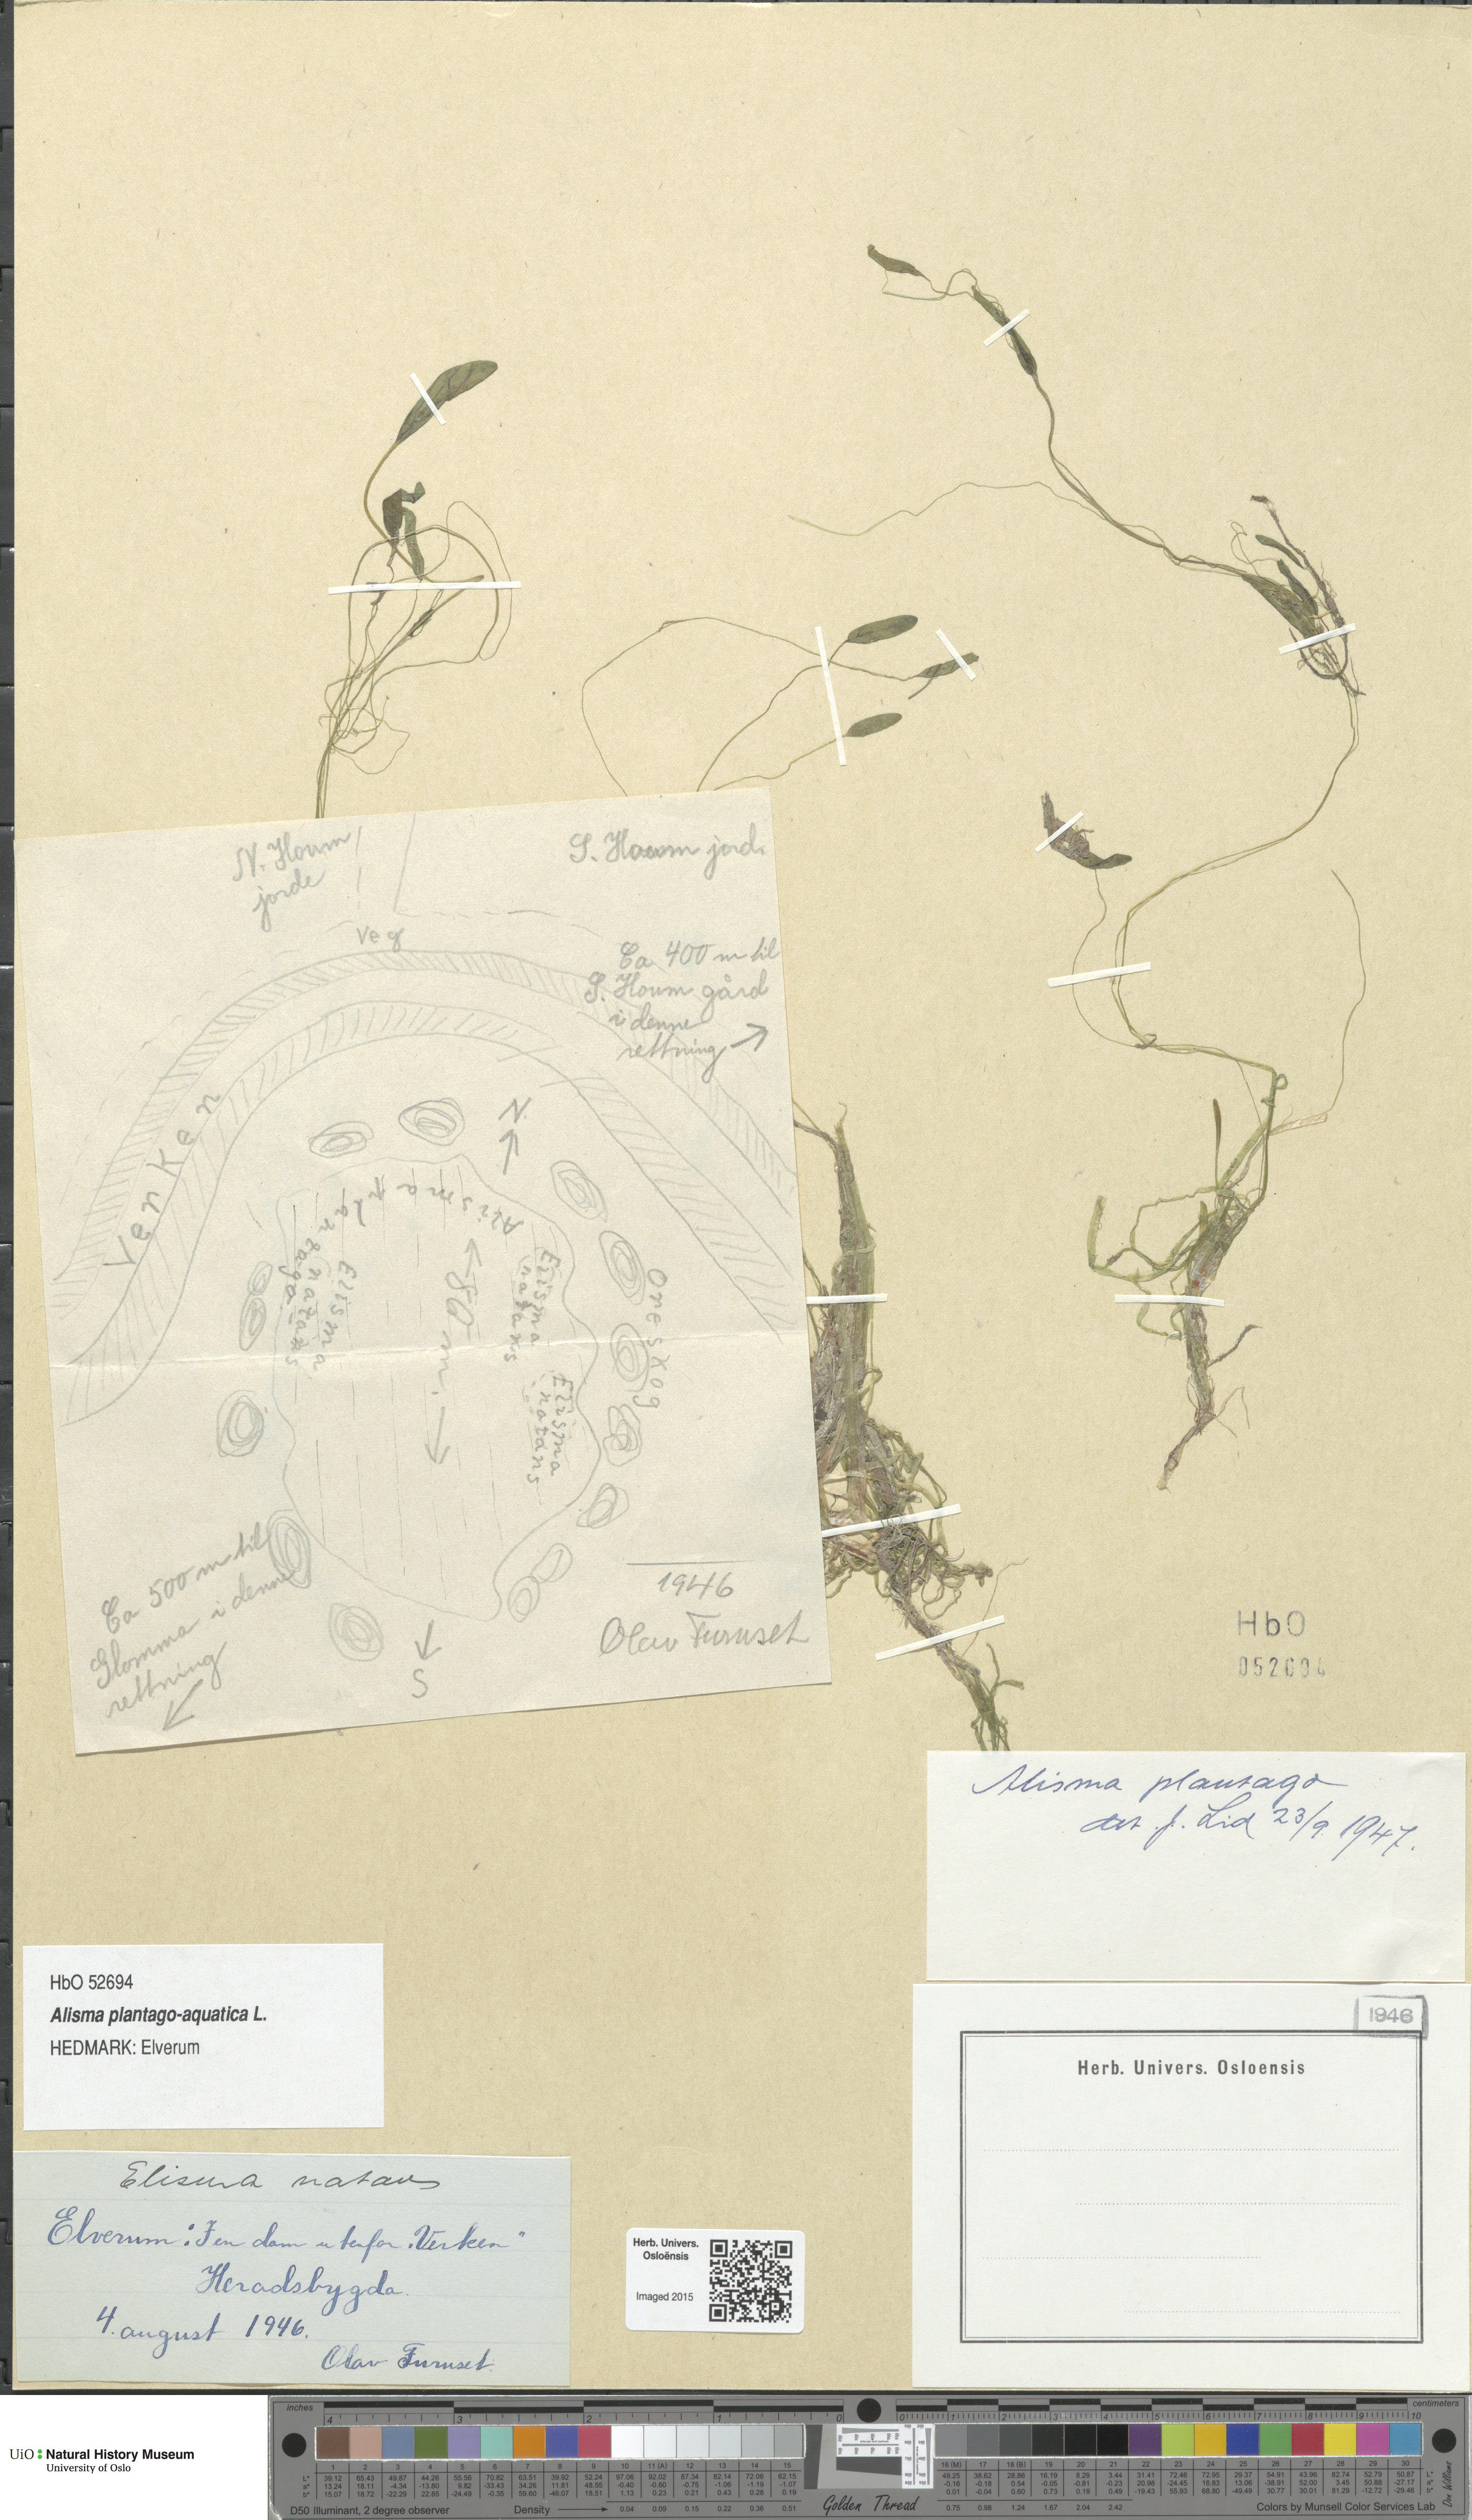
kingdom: Plantae
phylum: Tracheophyta
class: Liliopsida
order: Alismatales
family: Alismataceae
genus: Alisma
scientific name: Alisma plantago-aquatica
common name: Water-plantain
